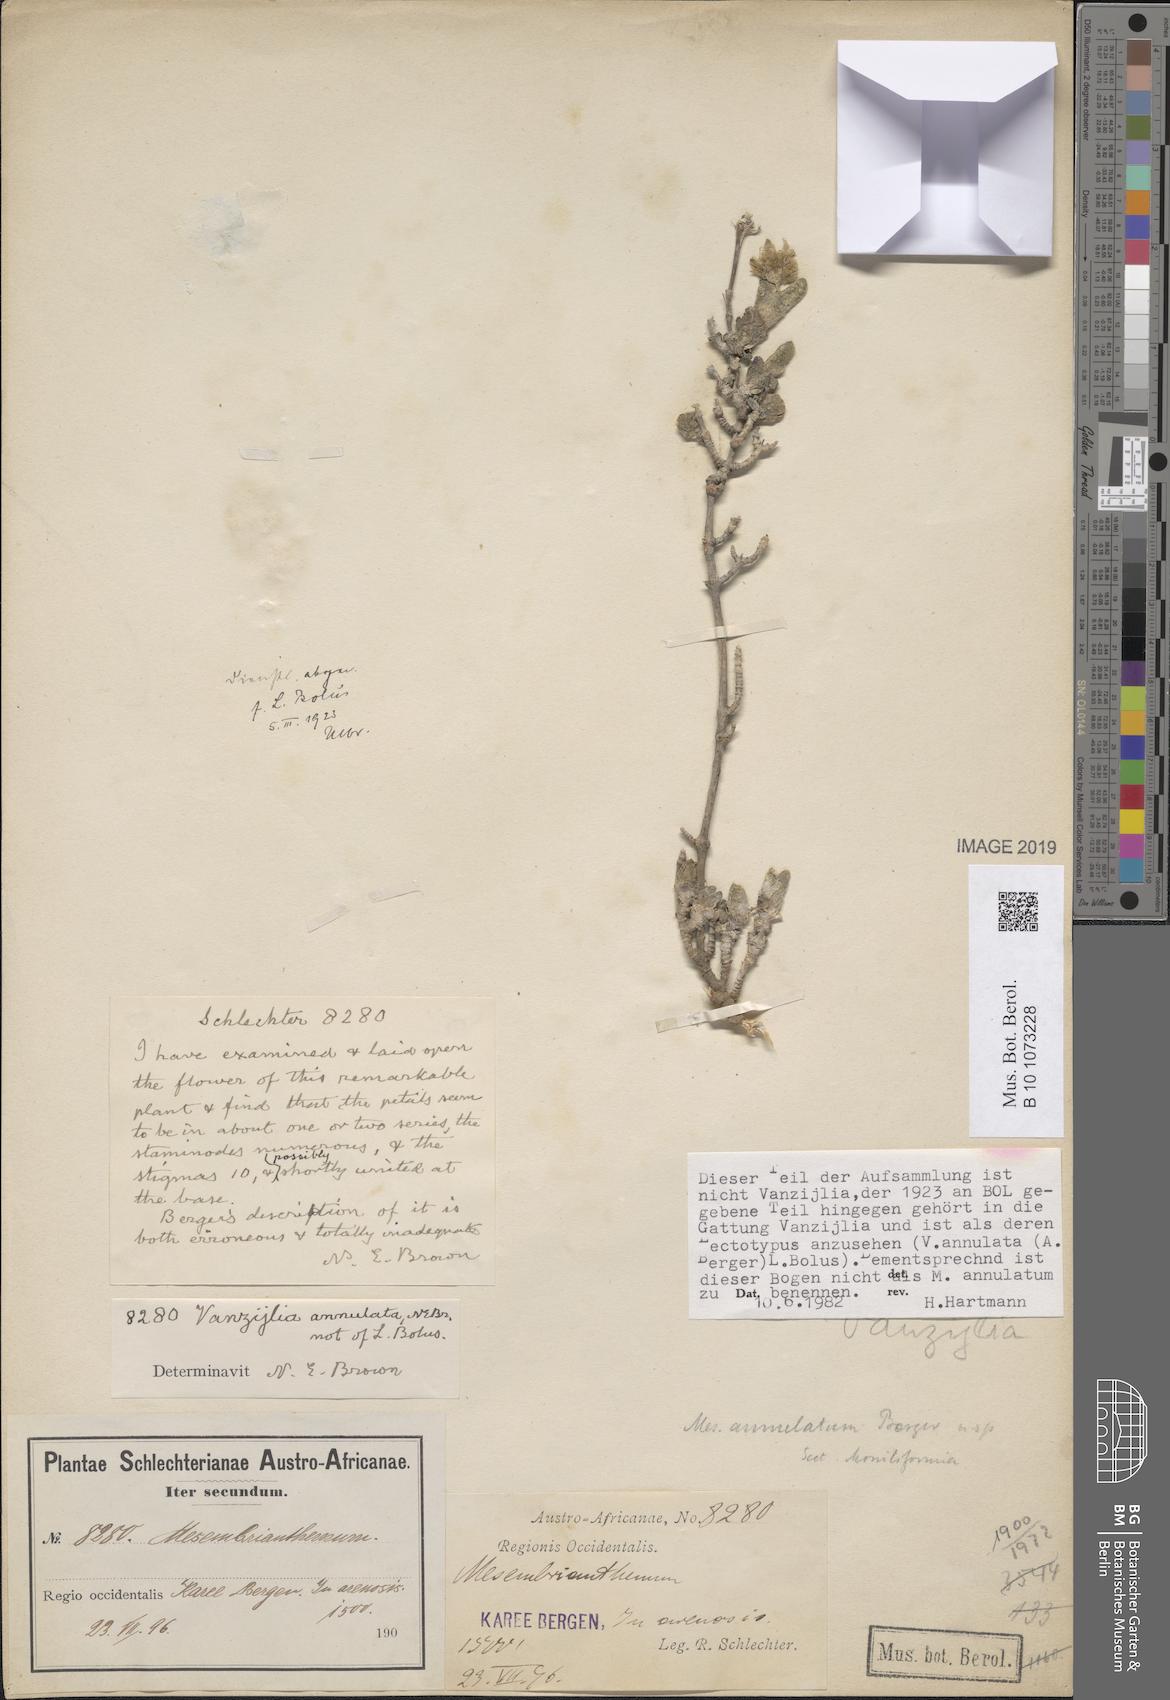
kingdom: Plantae
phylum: Tracheophyta
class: Magnoliopsida
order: Caryophyllales
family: Aizoaceae
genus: Mesembryanthemum
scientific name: Mesembryanthemum
